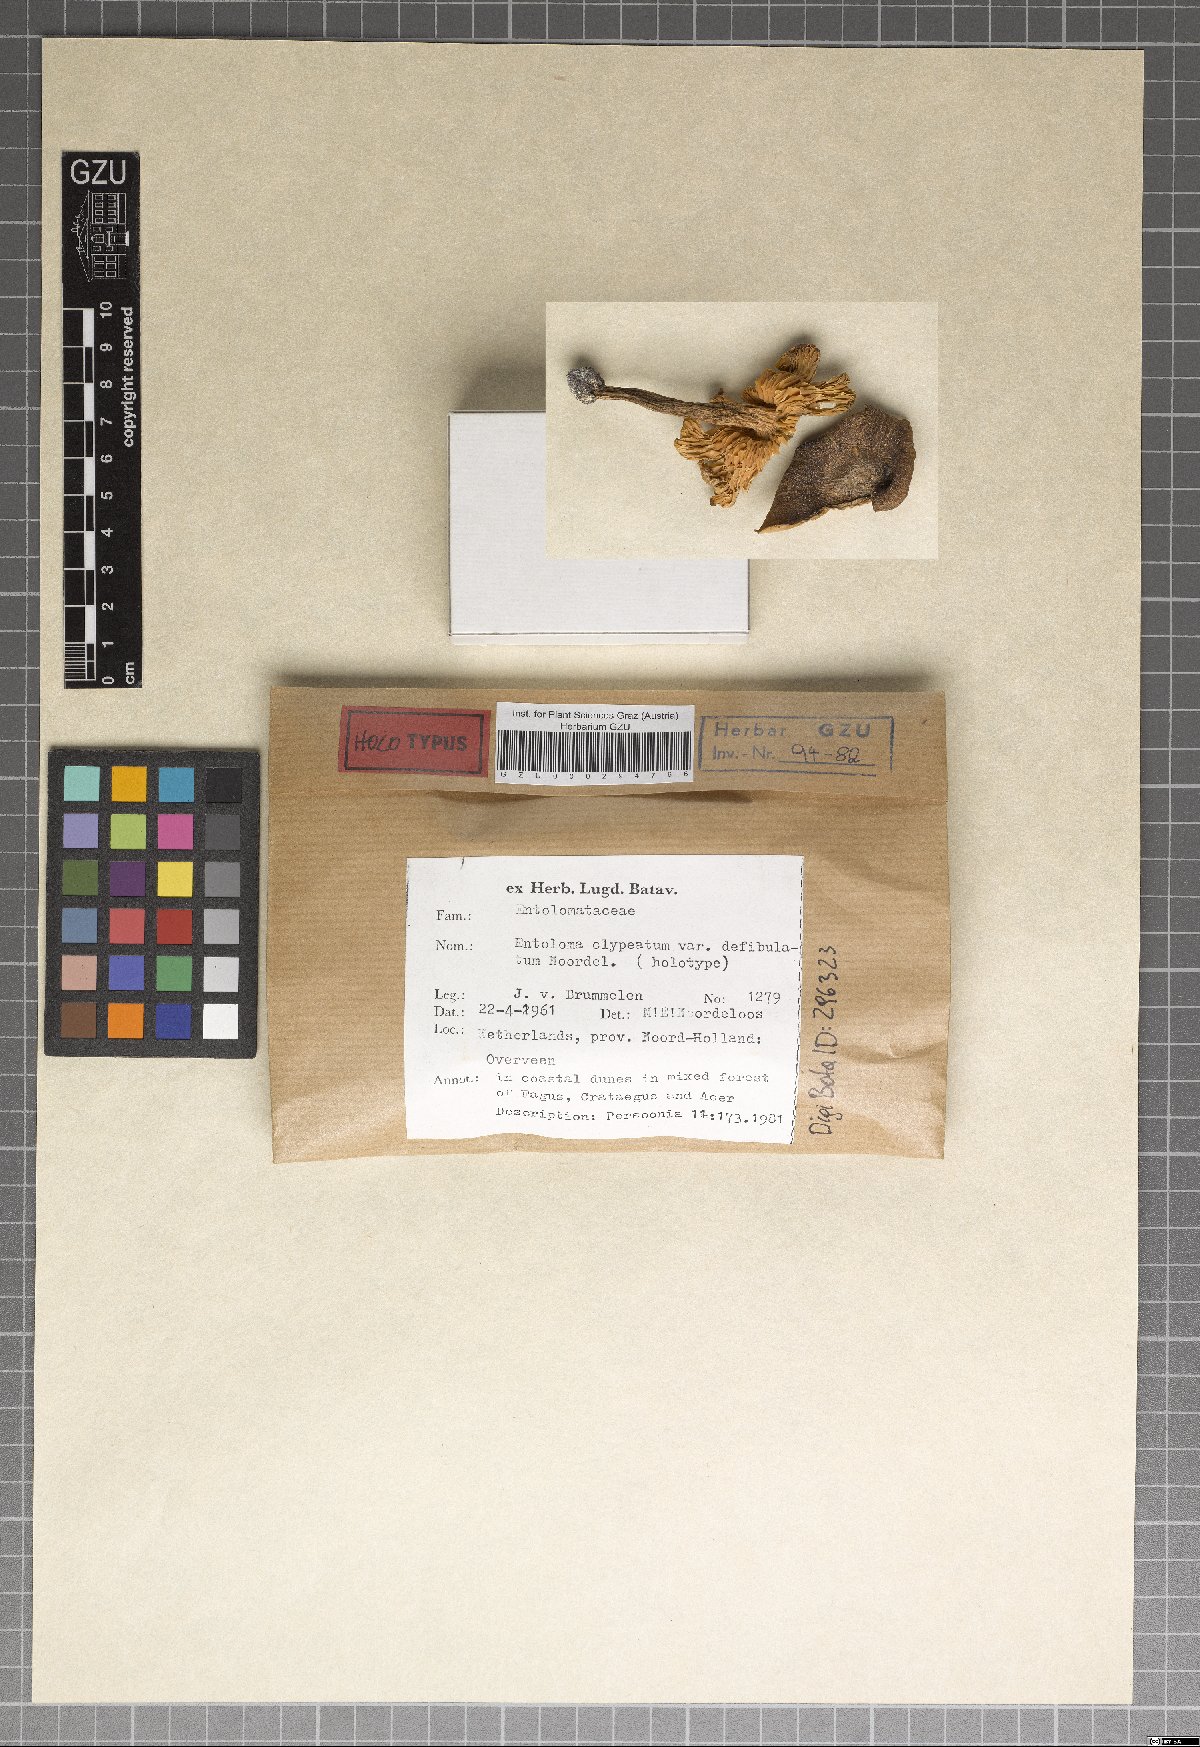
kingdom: Fungi
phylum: Basidiomycota
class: Agaricomycetes
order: Agaricales
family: Entolomataceae
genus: Entoloma
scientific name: Entoloma clypeatum
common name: Shield pinkgill
